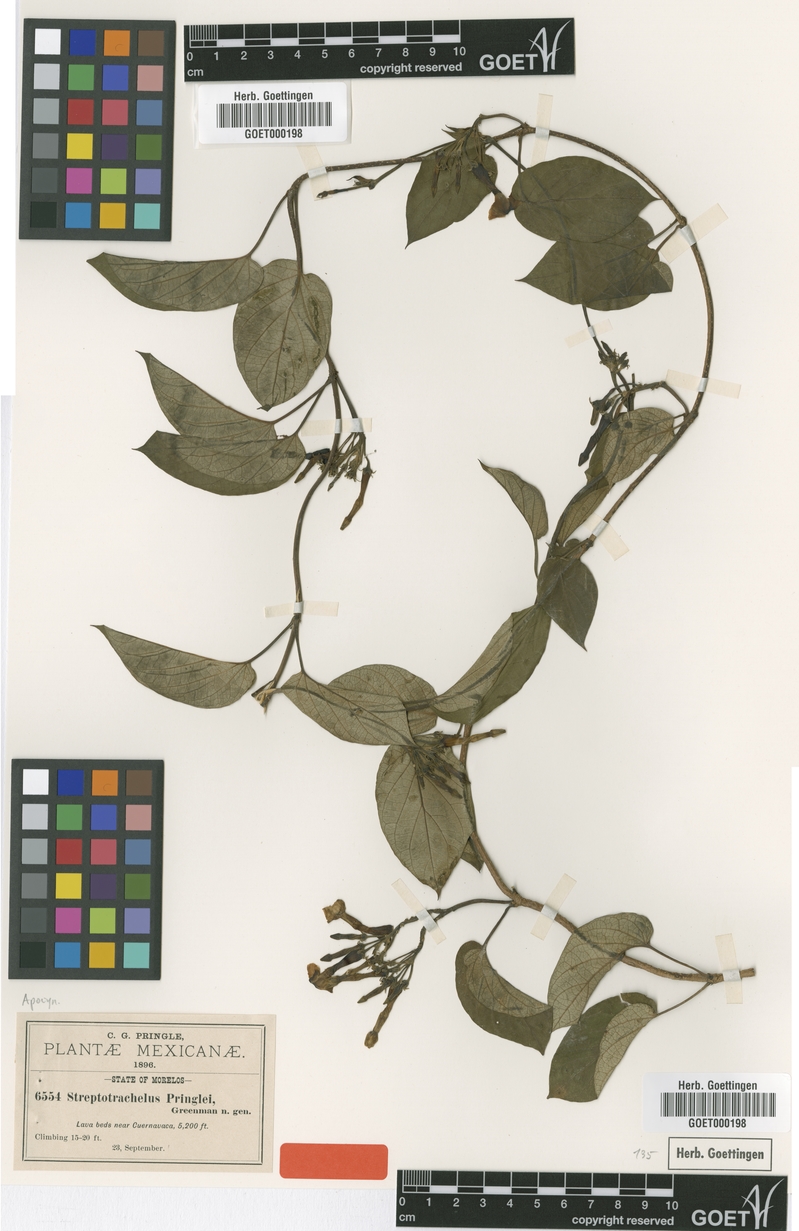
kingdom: Plantae
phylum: Tracheophyta
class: Magnoliopsida
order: Gentianales
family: Apocynaceae
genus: Laubertia
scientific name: Laubertia contorta
